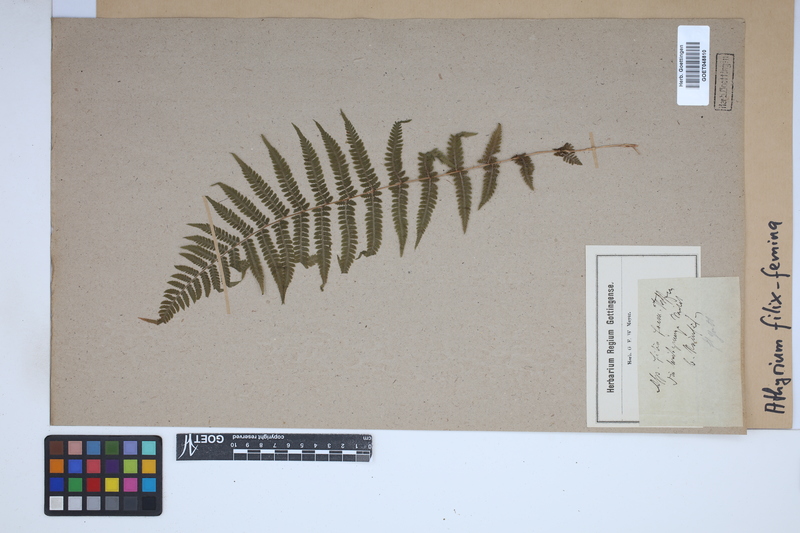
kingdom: Plantae
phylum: Tracheophyta
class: Polypodiopsida
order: Polypodiales
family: Athyriaceae
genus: Athyrium
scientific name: Athyrium filix-femina
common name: Lady fern
